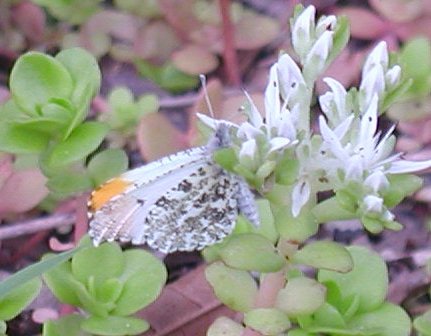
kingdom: Animalia
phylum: Arthropoda
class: Insecta
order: Lepidoptera
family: Pieridae
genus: Anthocharis
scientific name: Anthocharis midea
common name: Falcate Orangetip
